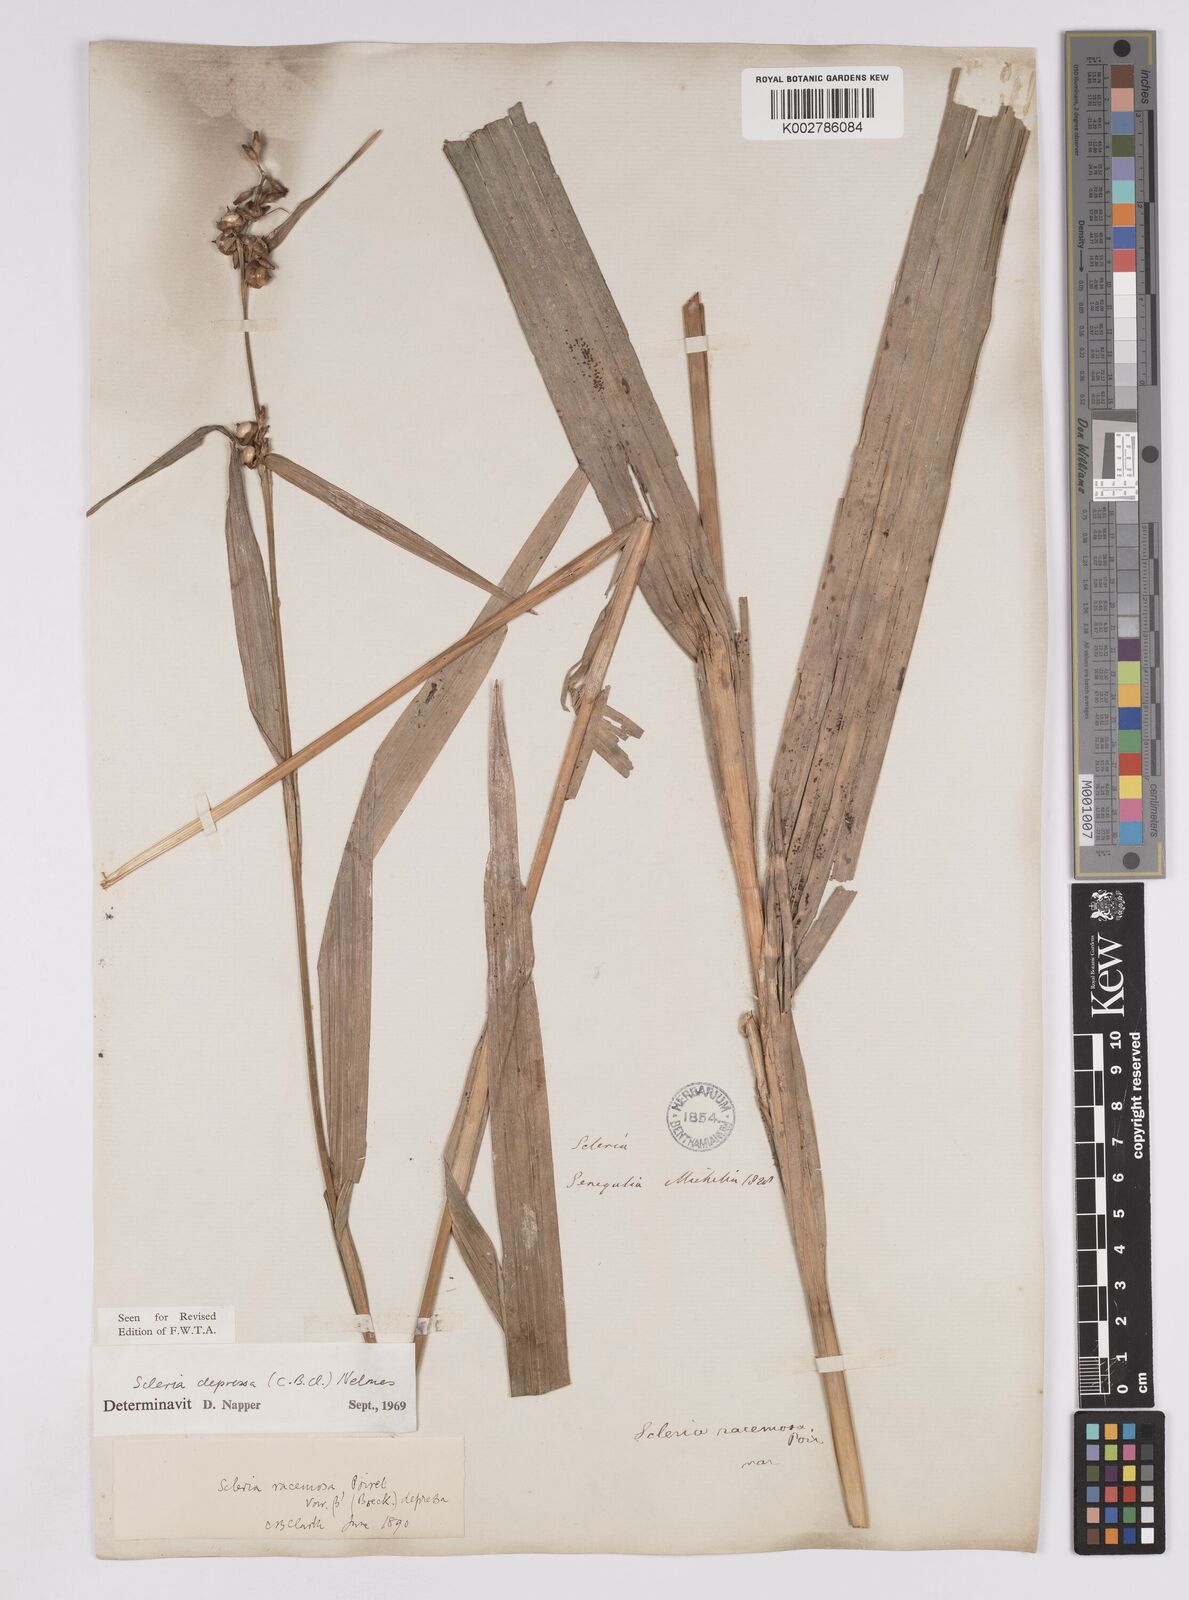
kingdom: Plantae
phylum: Tracheophyta
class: Liliopsida
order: Poales
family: Cyperaceae
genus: Scleria
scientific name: Scleria depressa
